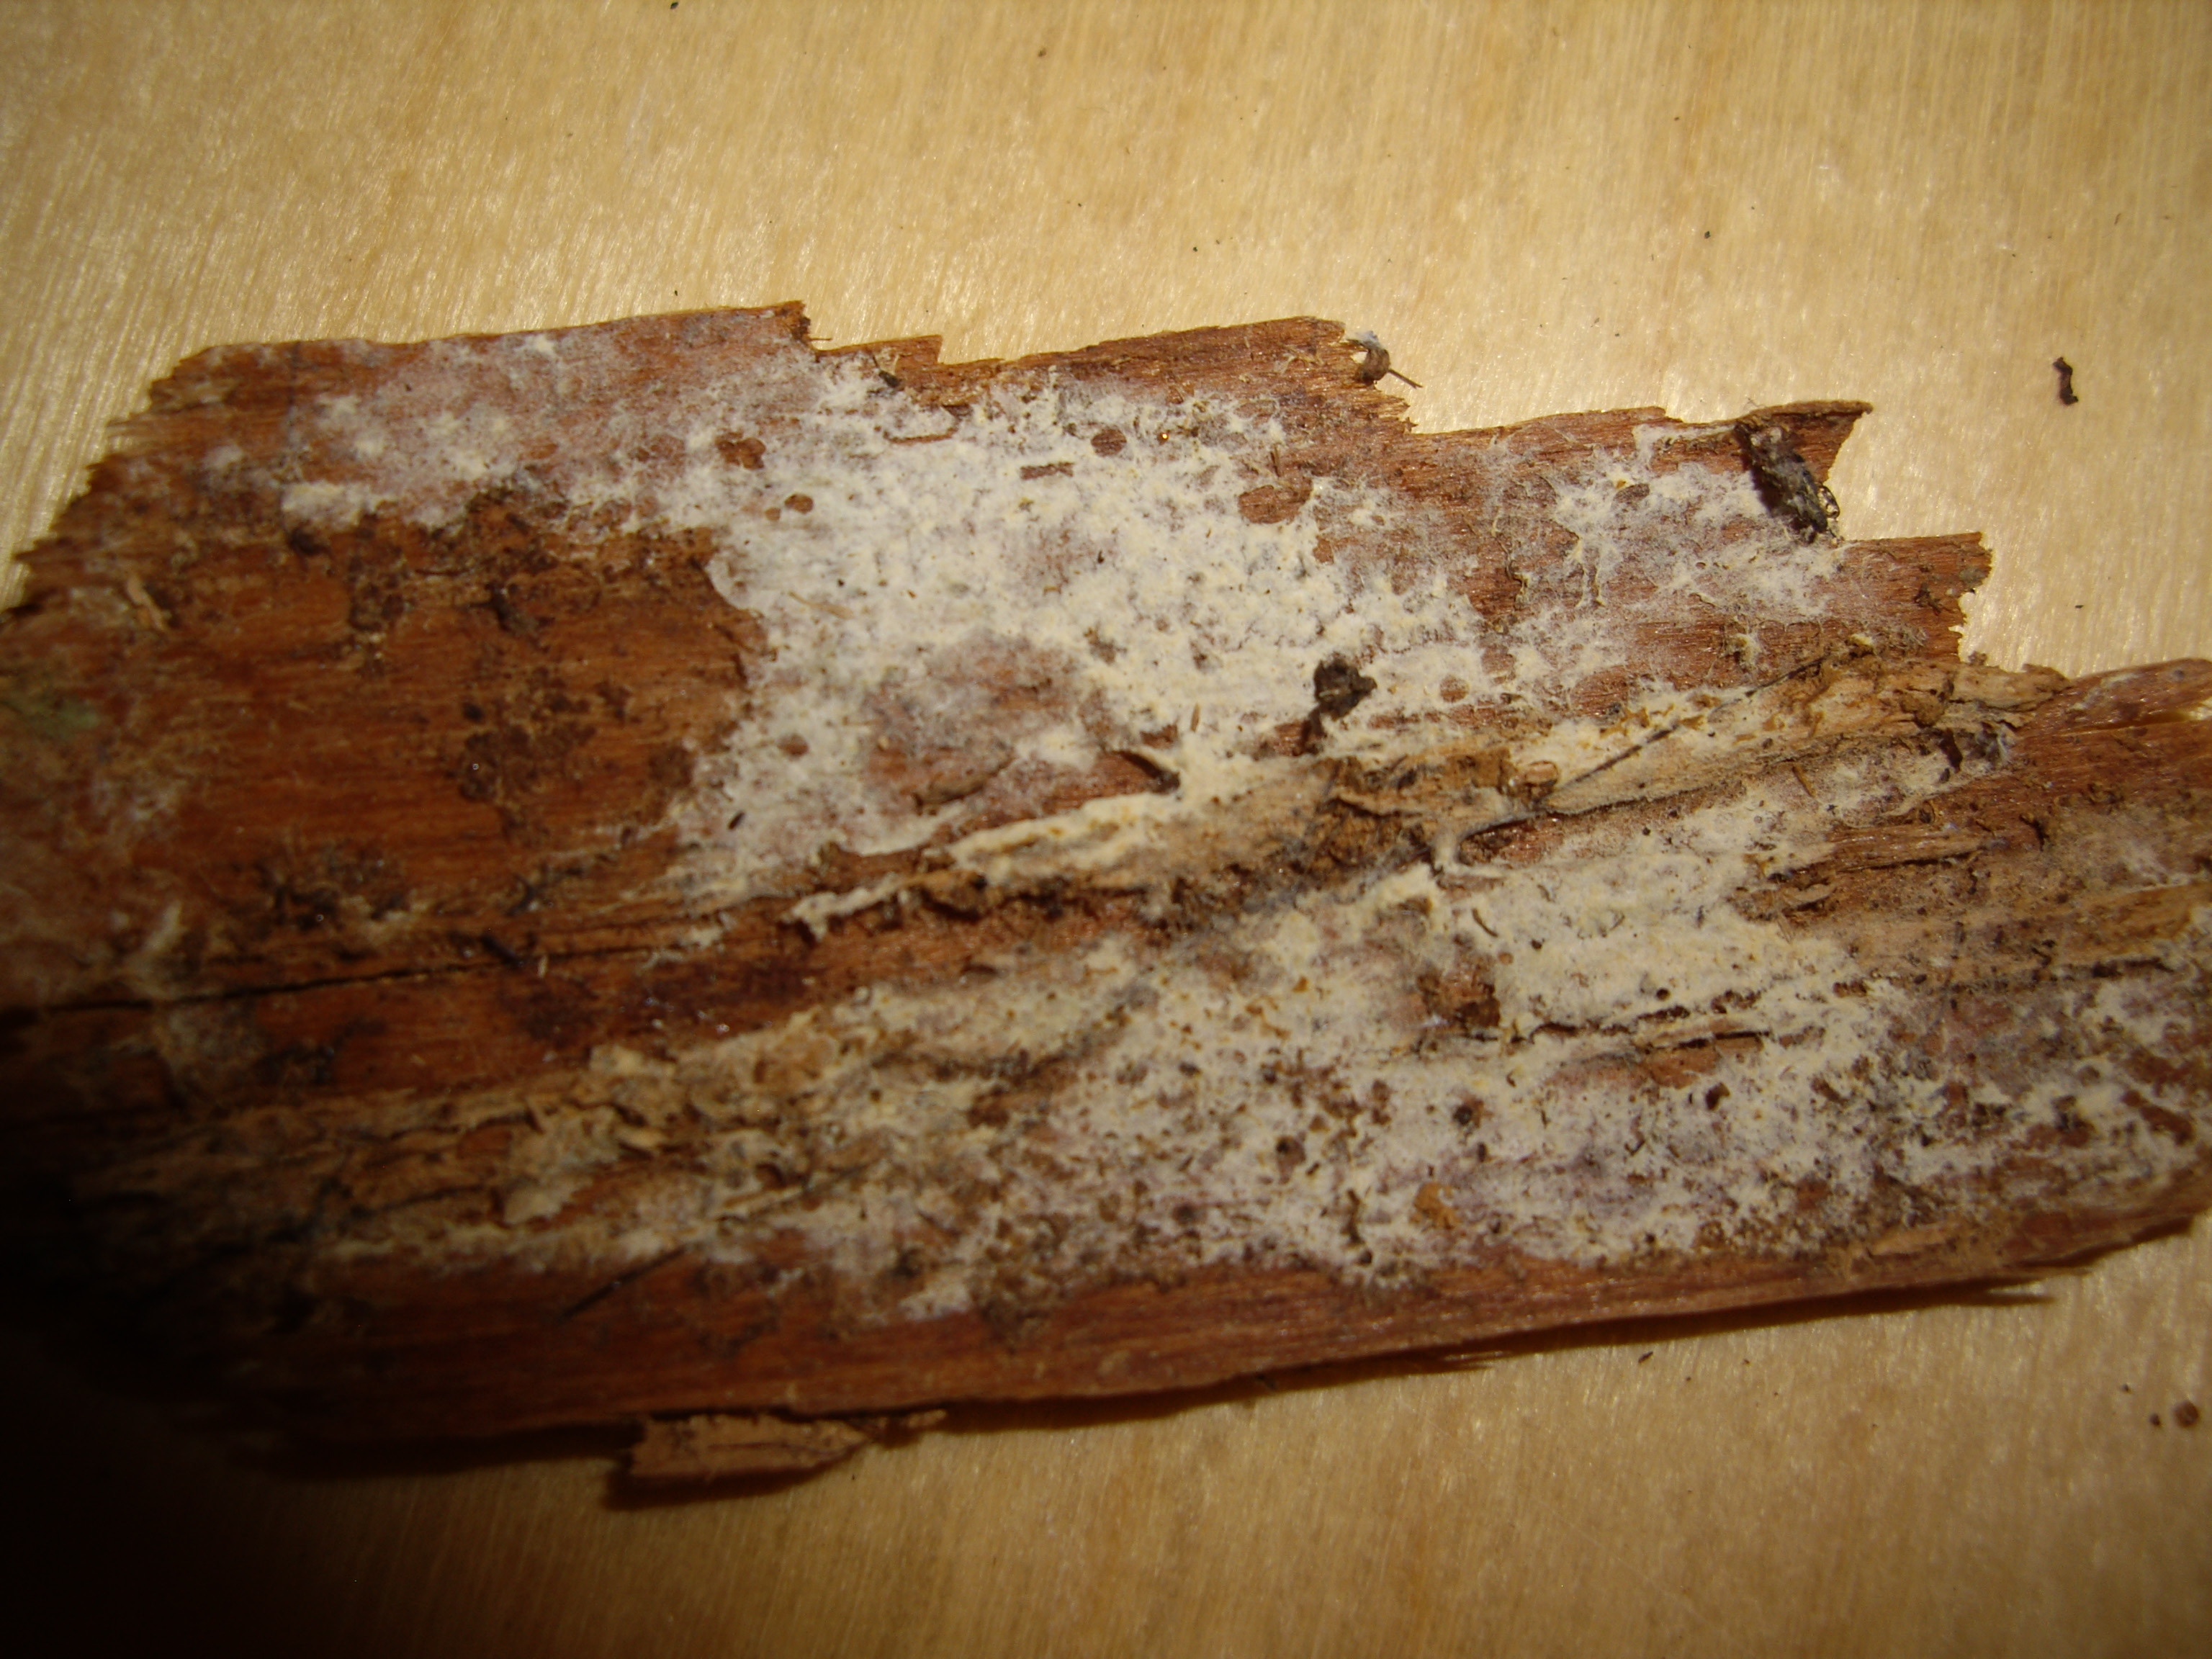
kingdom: Fungi
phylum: Basidiomycota
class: Agaricomycetes
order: Atheliales
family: Atheliaceae
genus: Piloderma
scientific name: Piloderma lanatum
